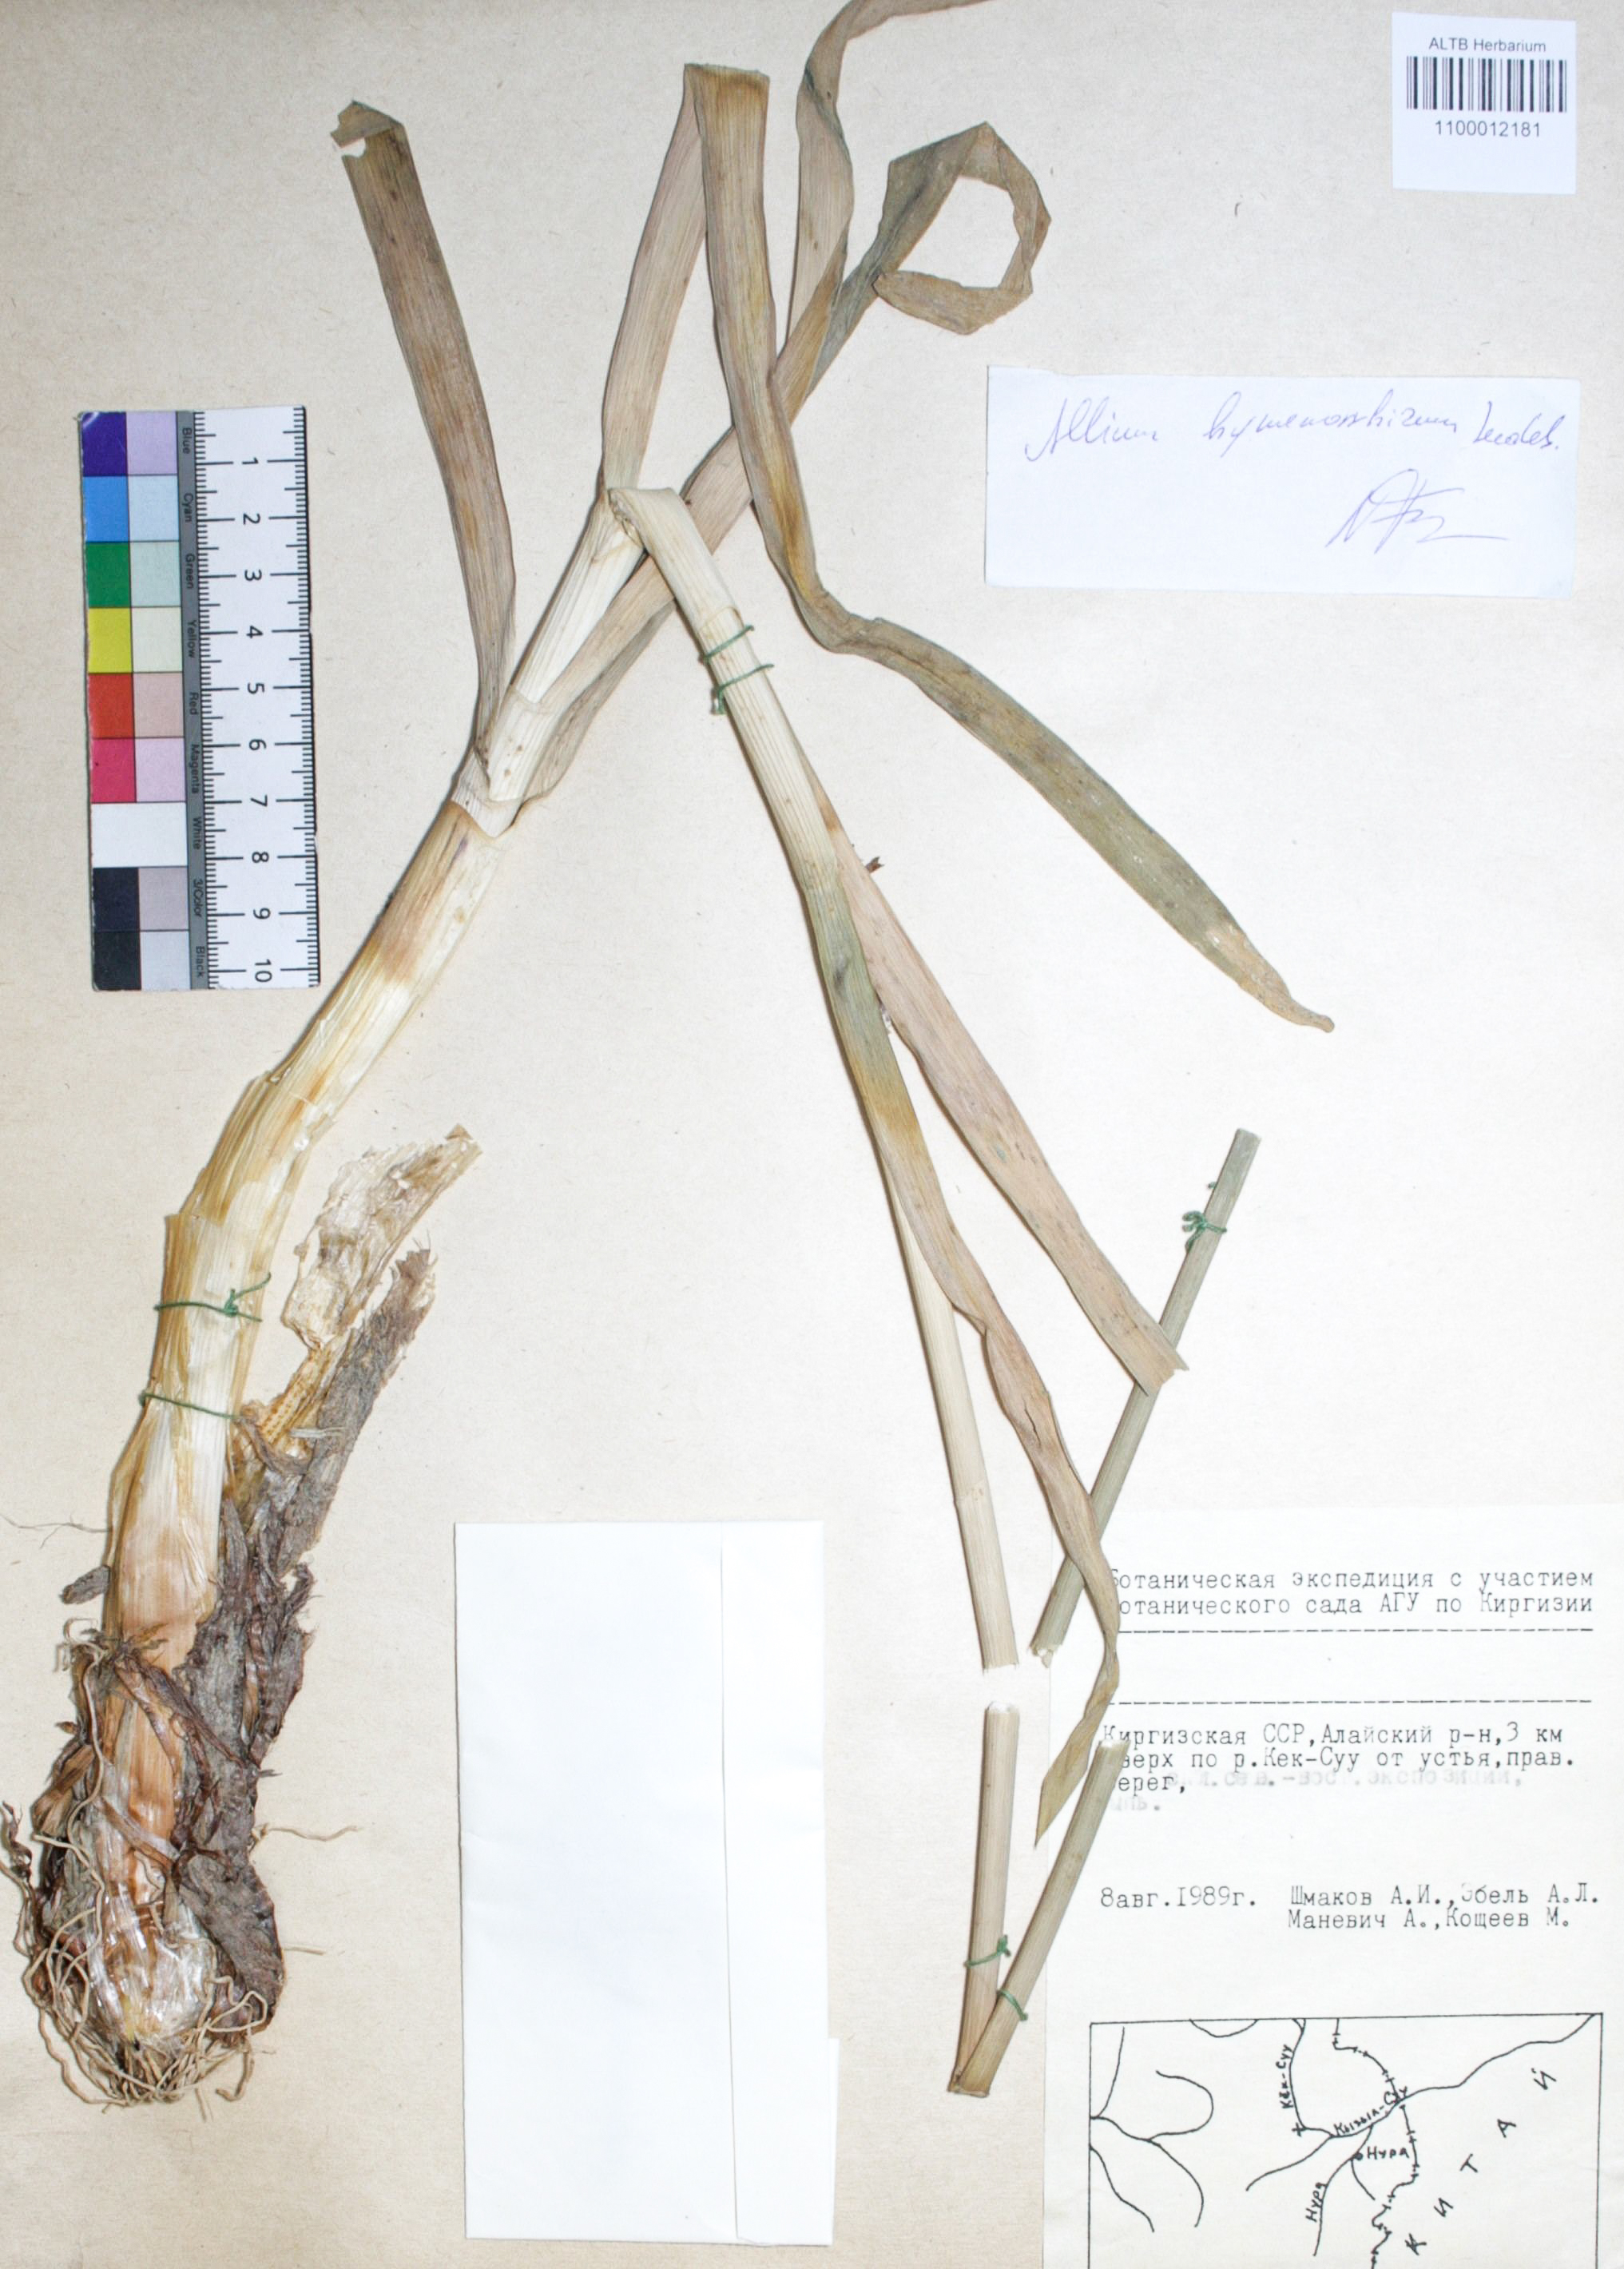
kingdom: Plantae
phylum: Tracheophyta
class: Liliopsida
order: Asparagales
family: Amaryllidaceae
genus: Allium
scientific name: Allium hymenorhizum
